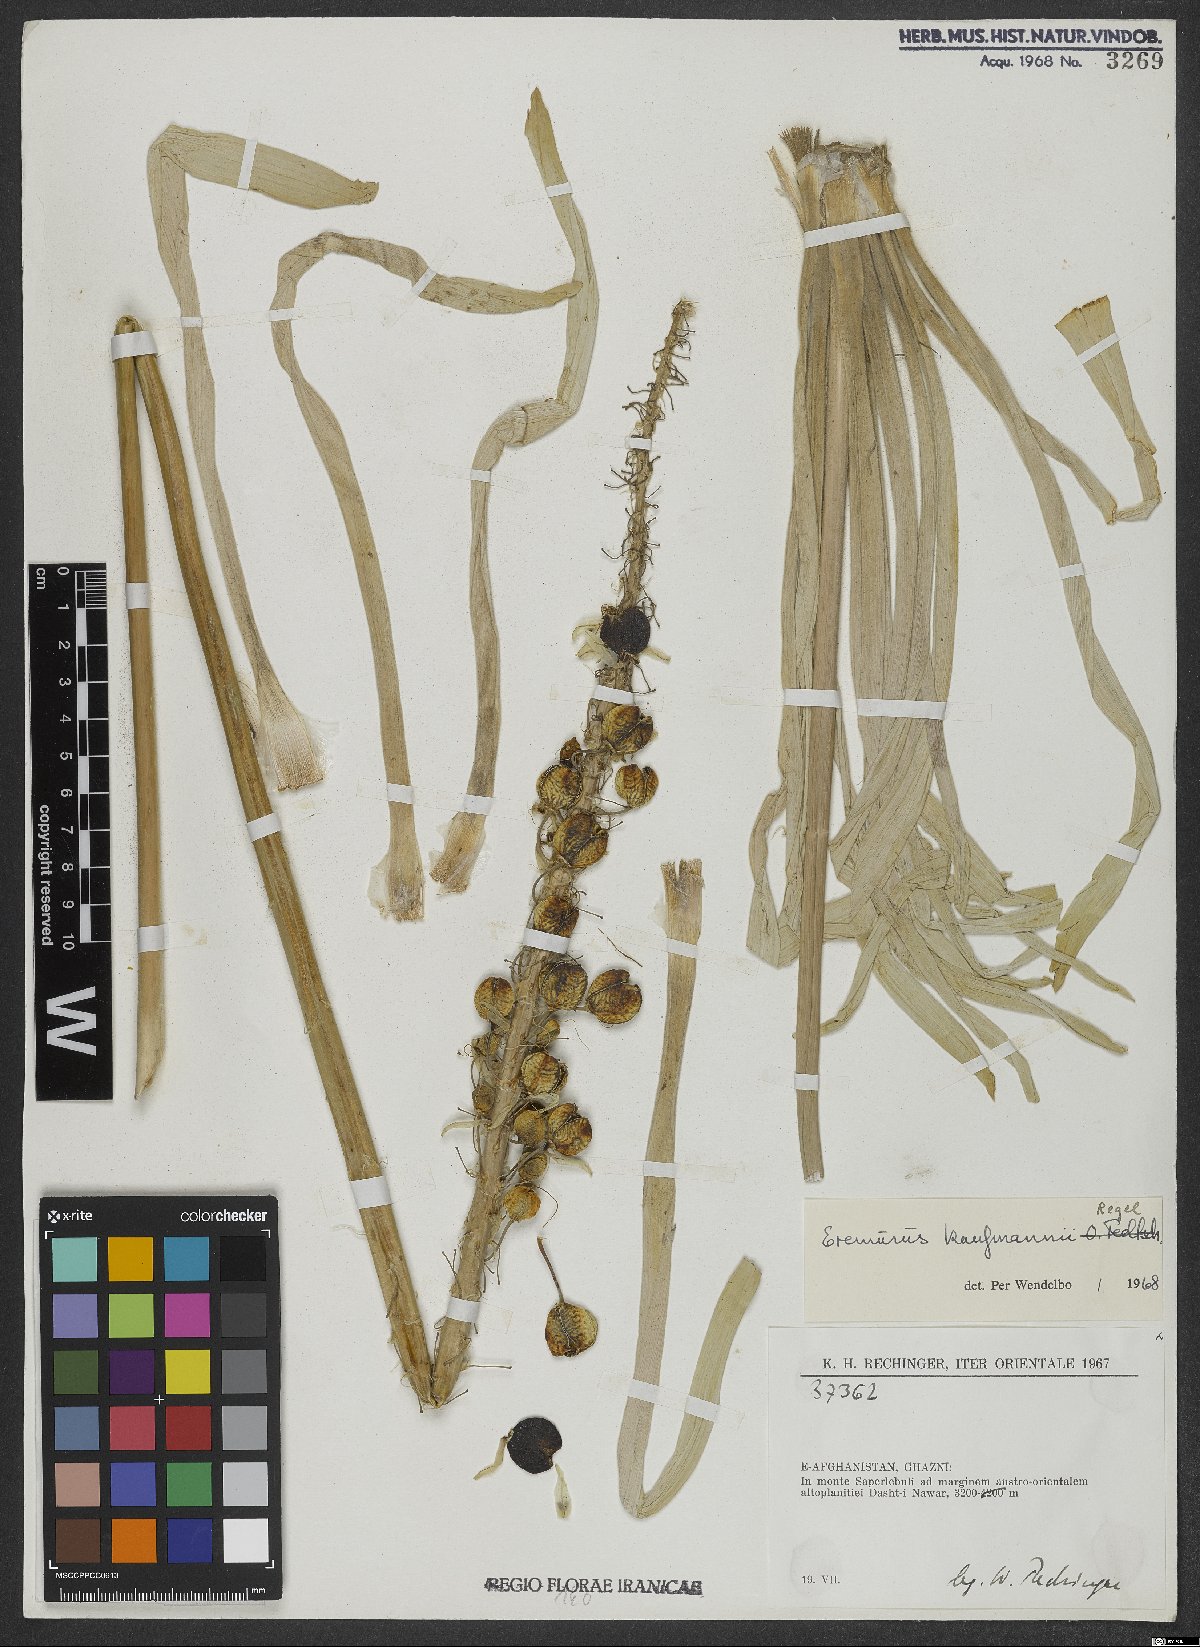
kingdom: Plantae
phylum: Tracheophyta
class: Liliopsida
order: Asparagales
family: Asphodelaceae
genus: Eremurus
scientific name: Eremurus kaufmannii
